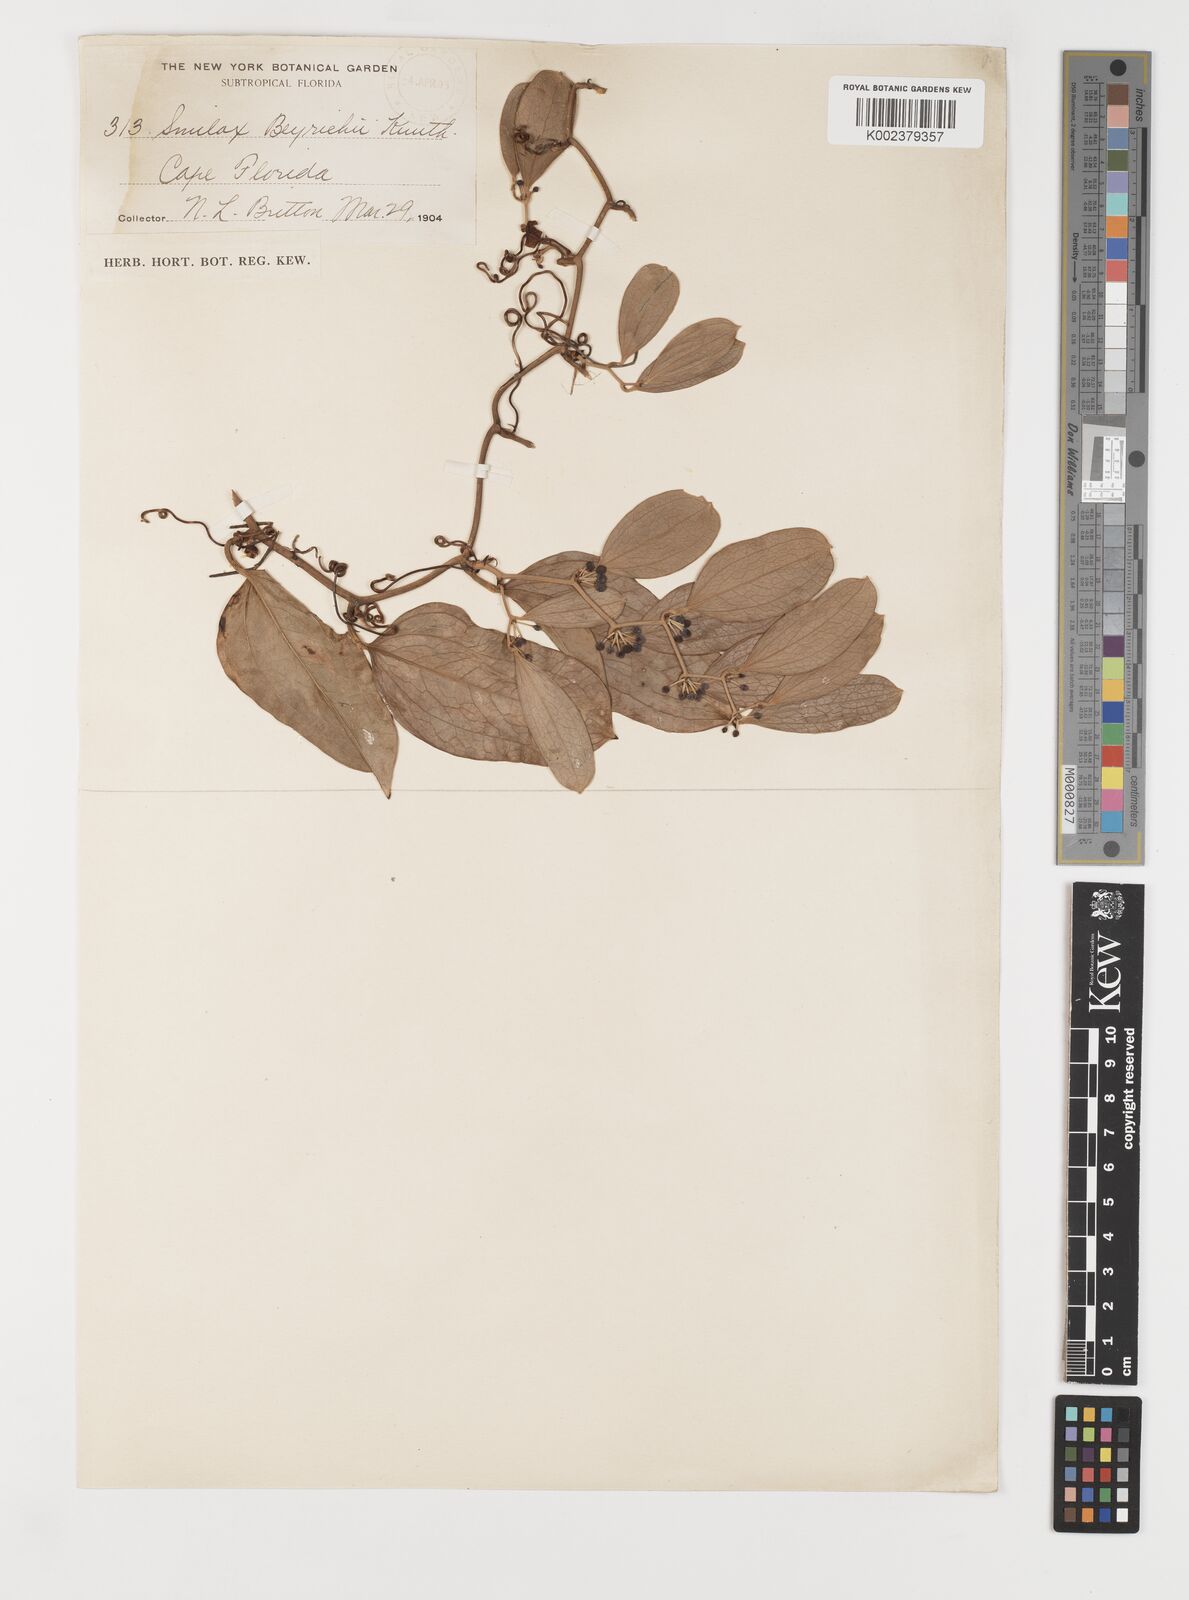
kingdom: Plantae
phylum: Tracheophyta
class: Liliopsida
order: Liliales
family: Smilacaceae
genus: Smilax
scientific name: Smilax auriculata
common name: Wild bamboo
